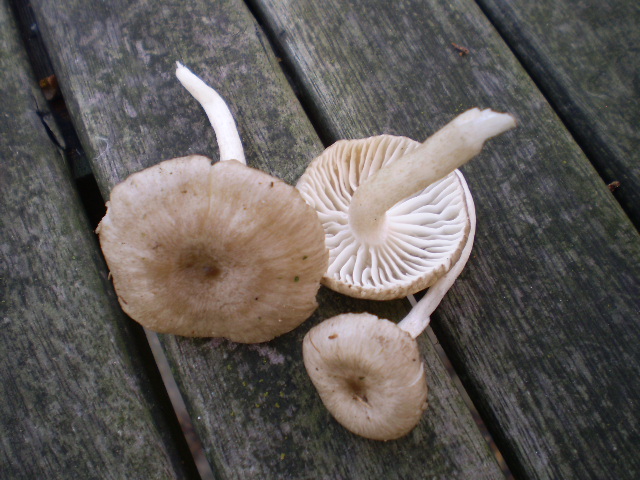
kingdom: Fungi
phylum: Basidiomycota
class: Agaricomycetes
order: Agaricales
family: Hygrophoraceae
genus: Hygrophorus
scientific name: Hygrophorus pustulatus
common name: mørkprikket sneglehat
